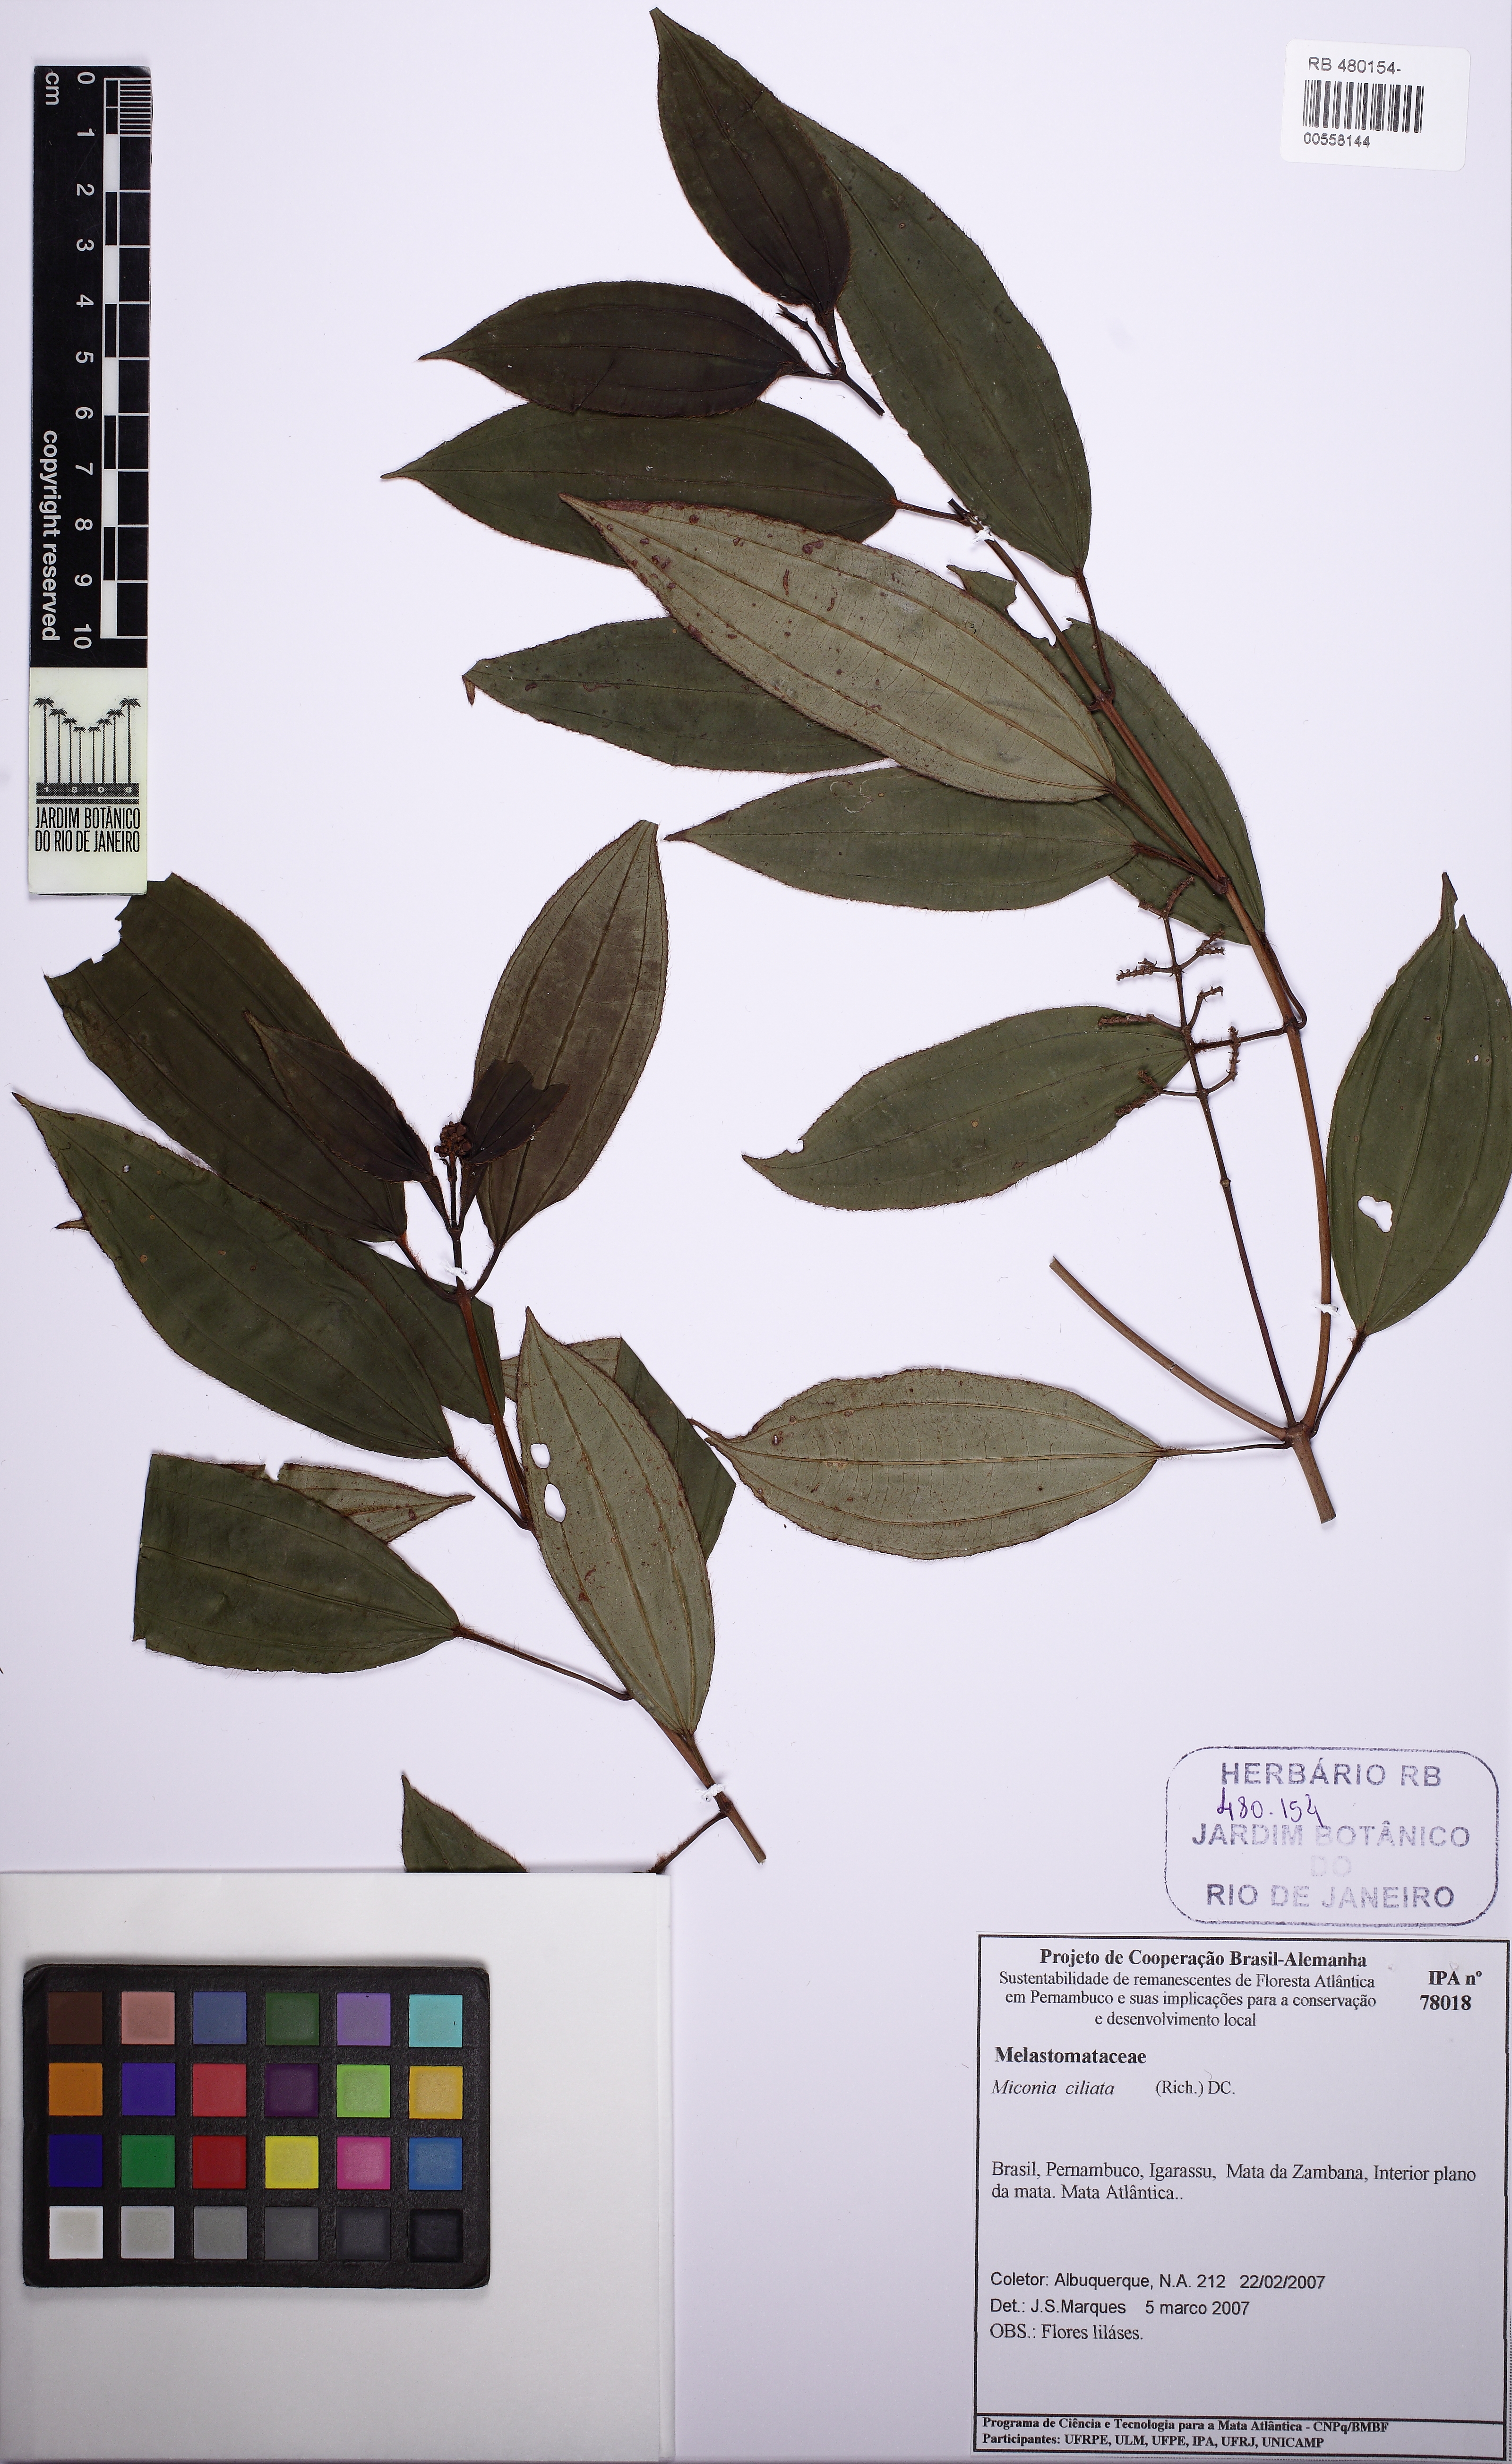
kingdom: Plantae
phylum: Tracheophyta
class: Magnoliopsida
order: Myrtales
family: Melastomataceae
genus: Miconia
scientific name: Miconia ciliata
